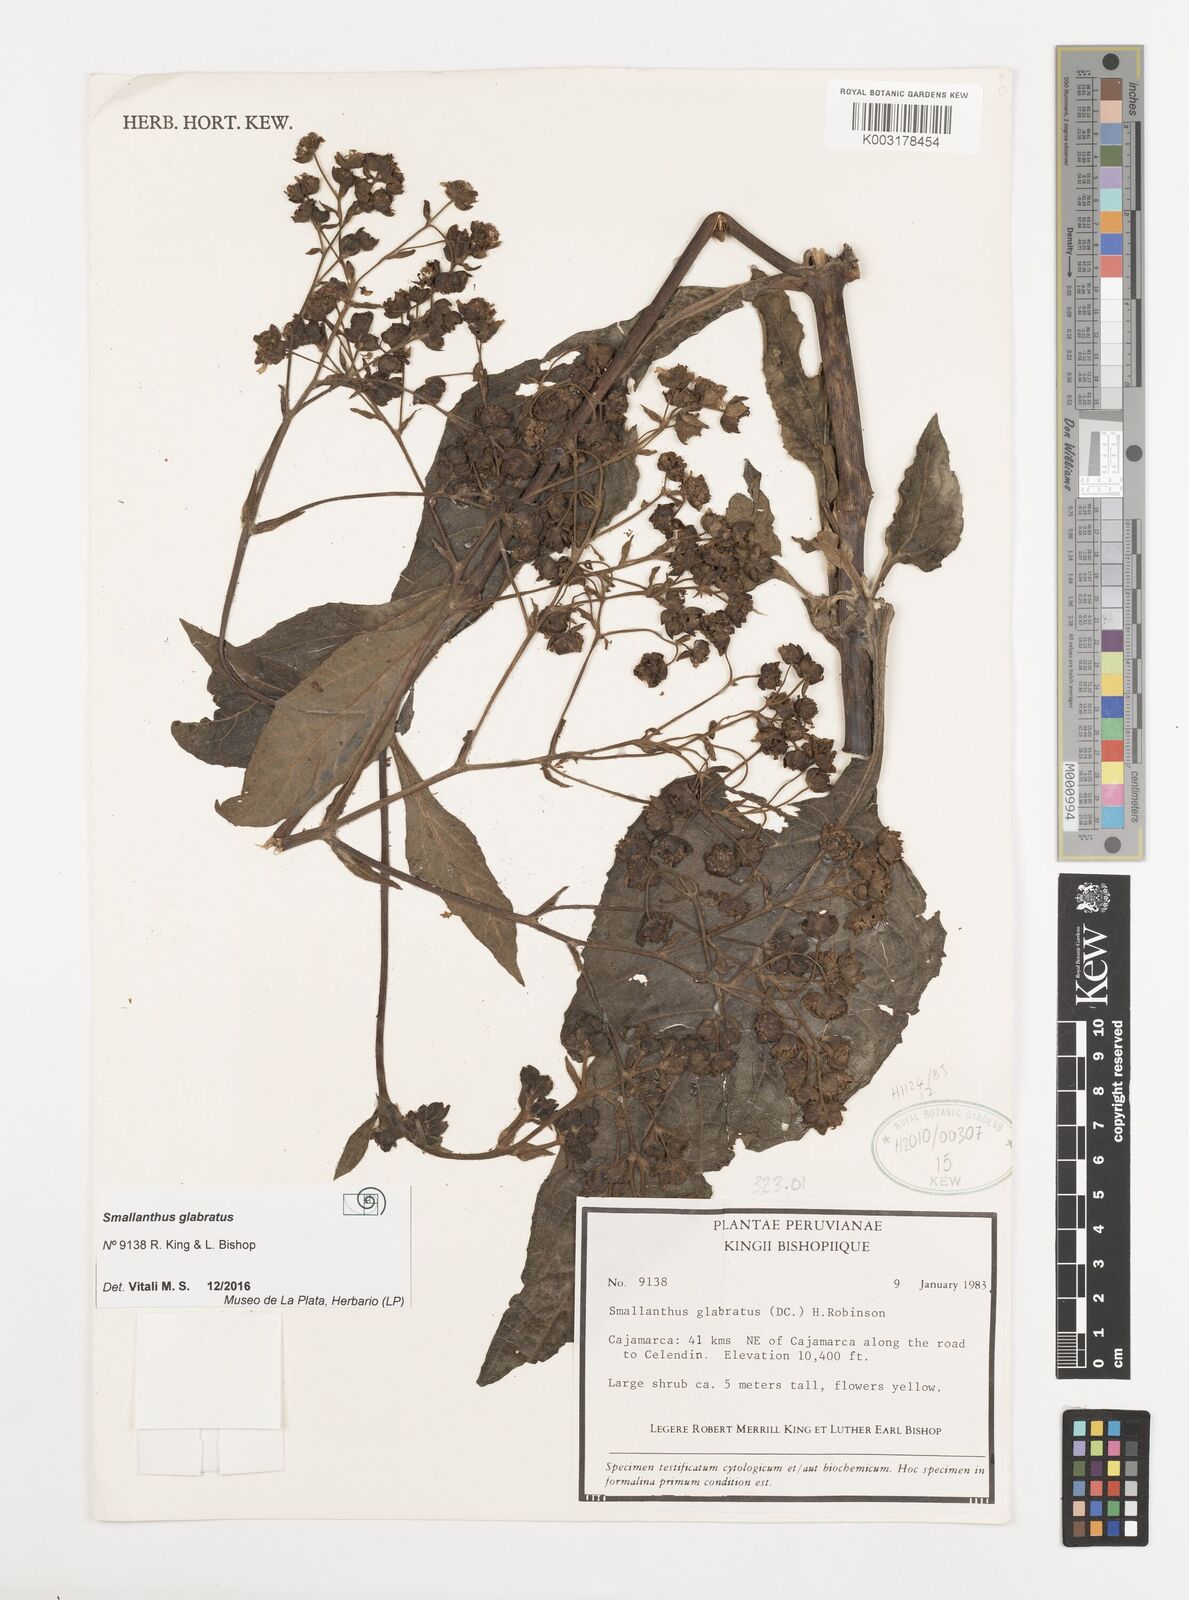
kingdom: Plantae
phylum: Tracheophyta
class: Magnoliopsida
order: Asterales
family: Asteraceae
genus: Smallanthus
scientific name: Smallanthus glabratus
